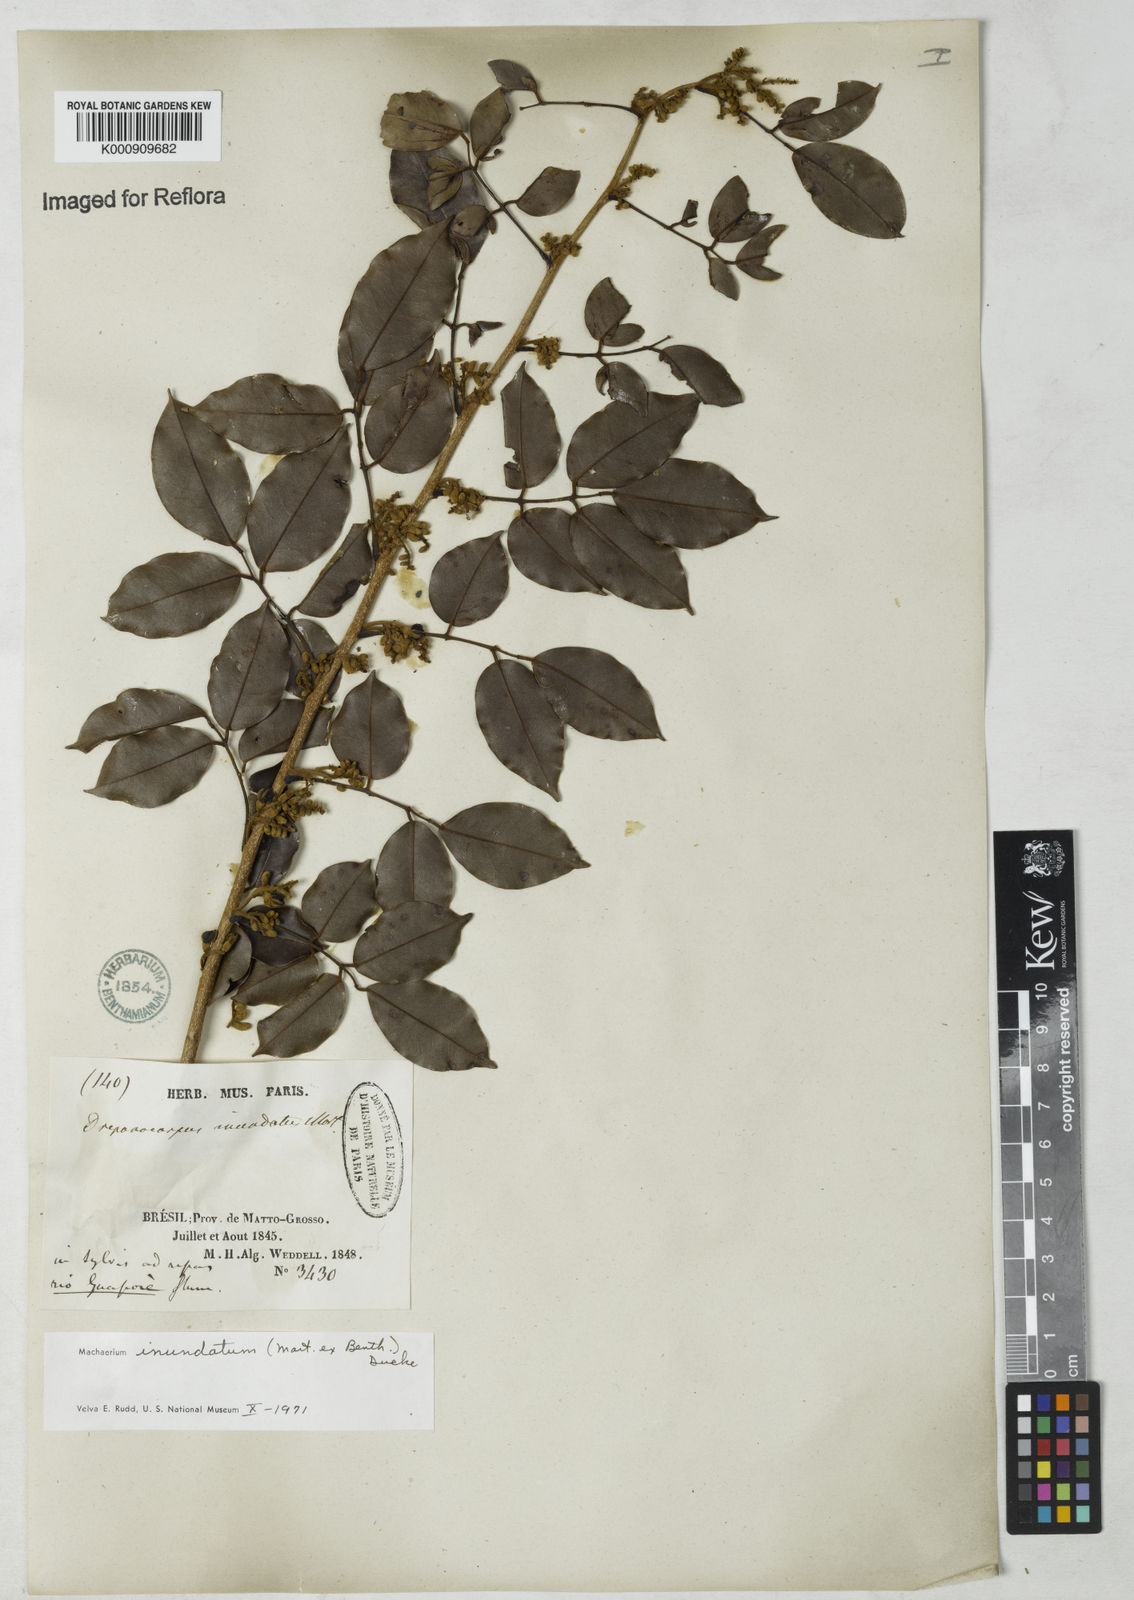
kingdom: Plantae
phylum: Tracheophyta
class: Magnoliopsida
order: Fabales
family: Fabaceae
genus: Machaerium
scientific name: Machaerium inundatum
